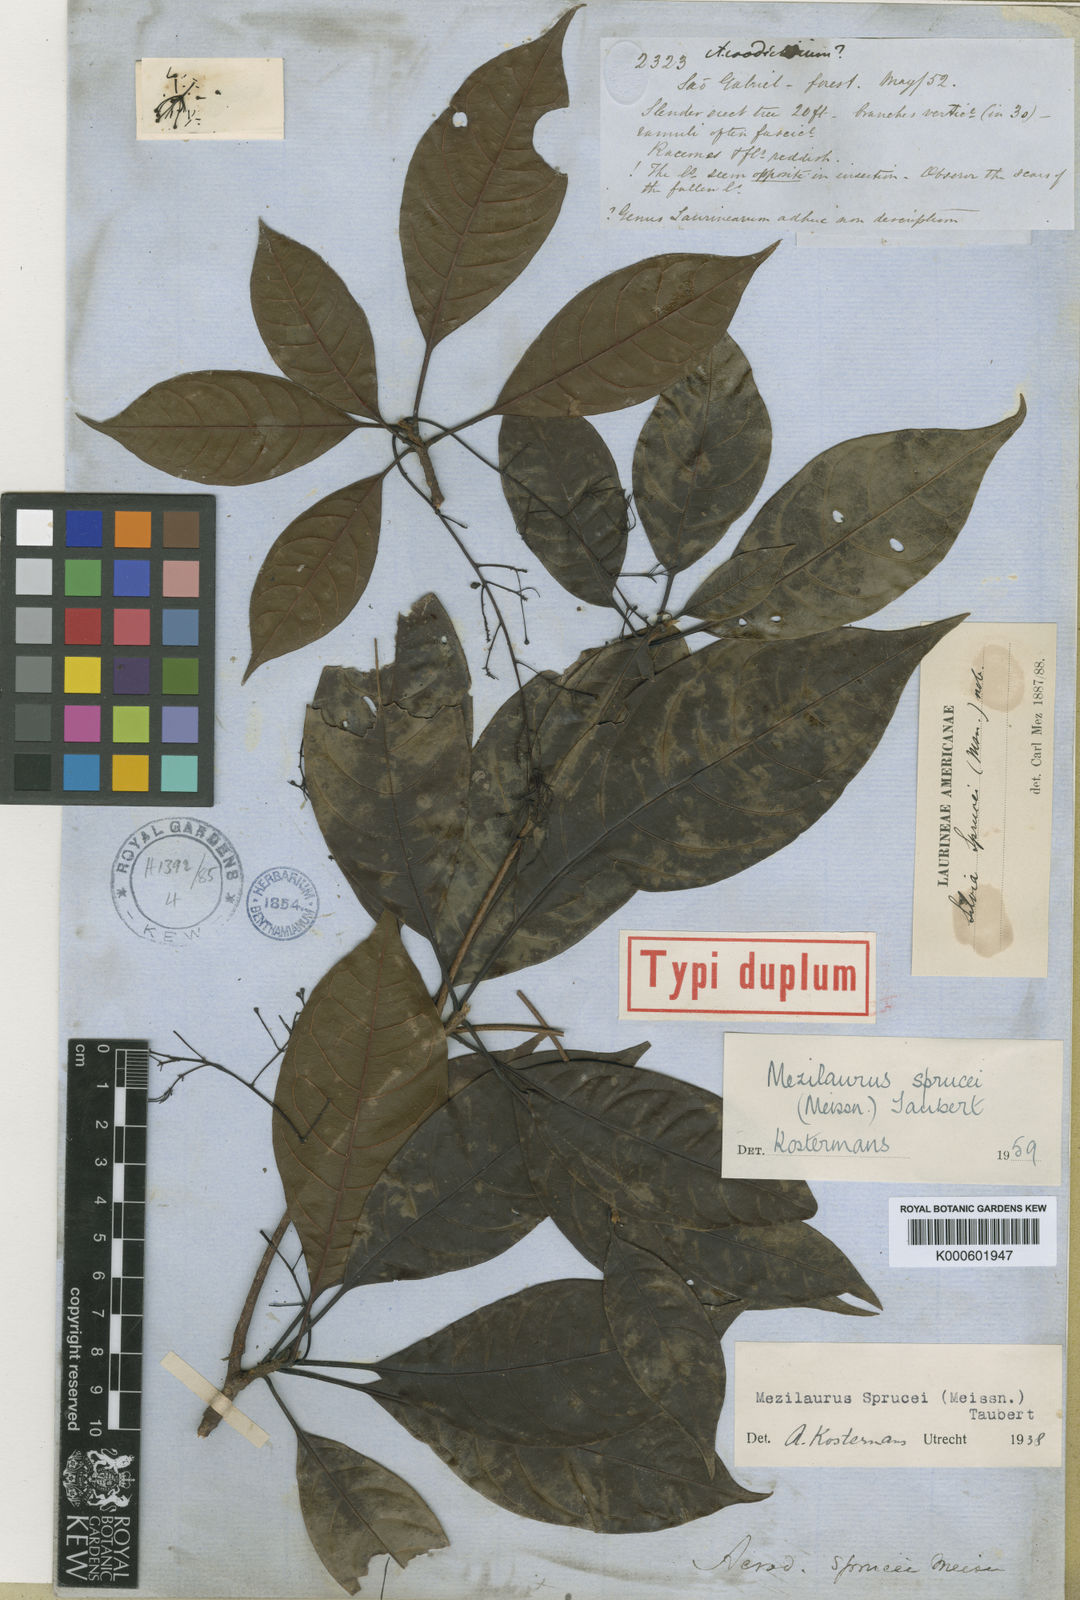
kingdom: Plantae
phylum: Tracheophyta
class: Magnoliopsida
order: Laurales
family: Lauraceae
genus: Mezilaurus
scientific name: Mezilaurus sprucei
